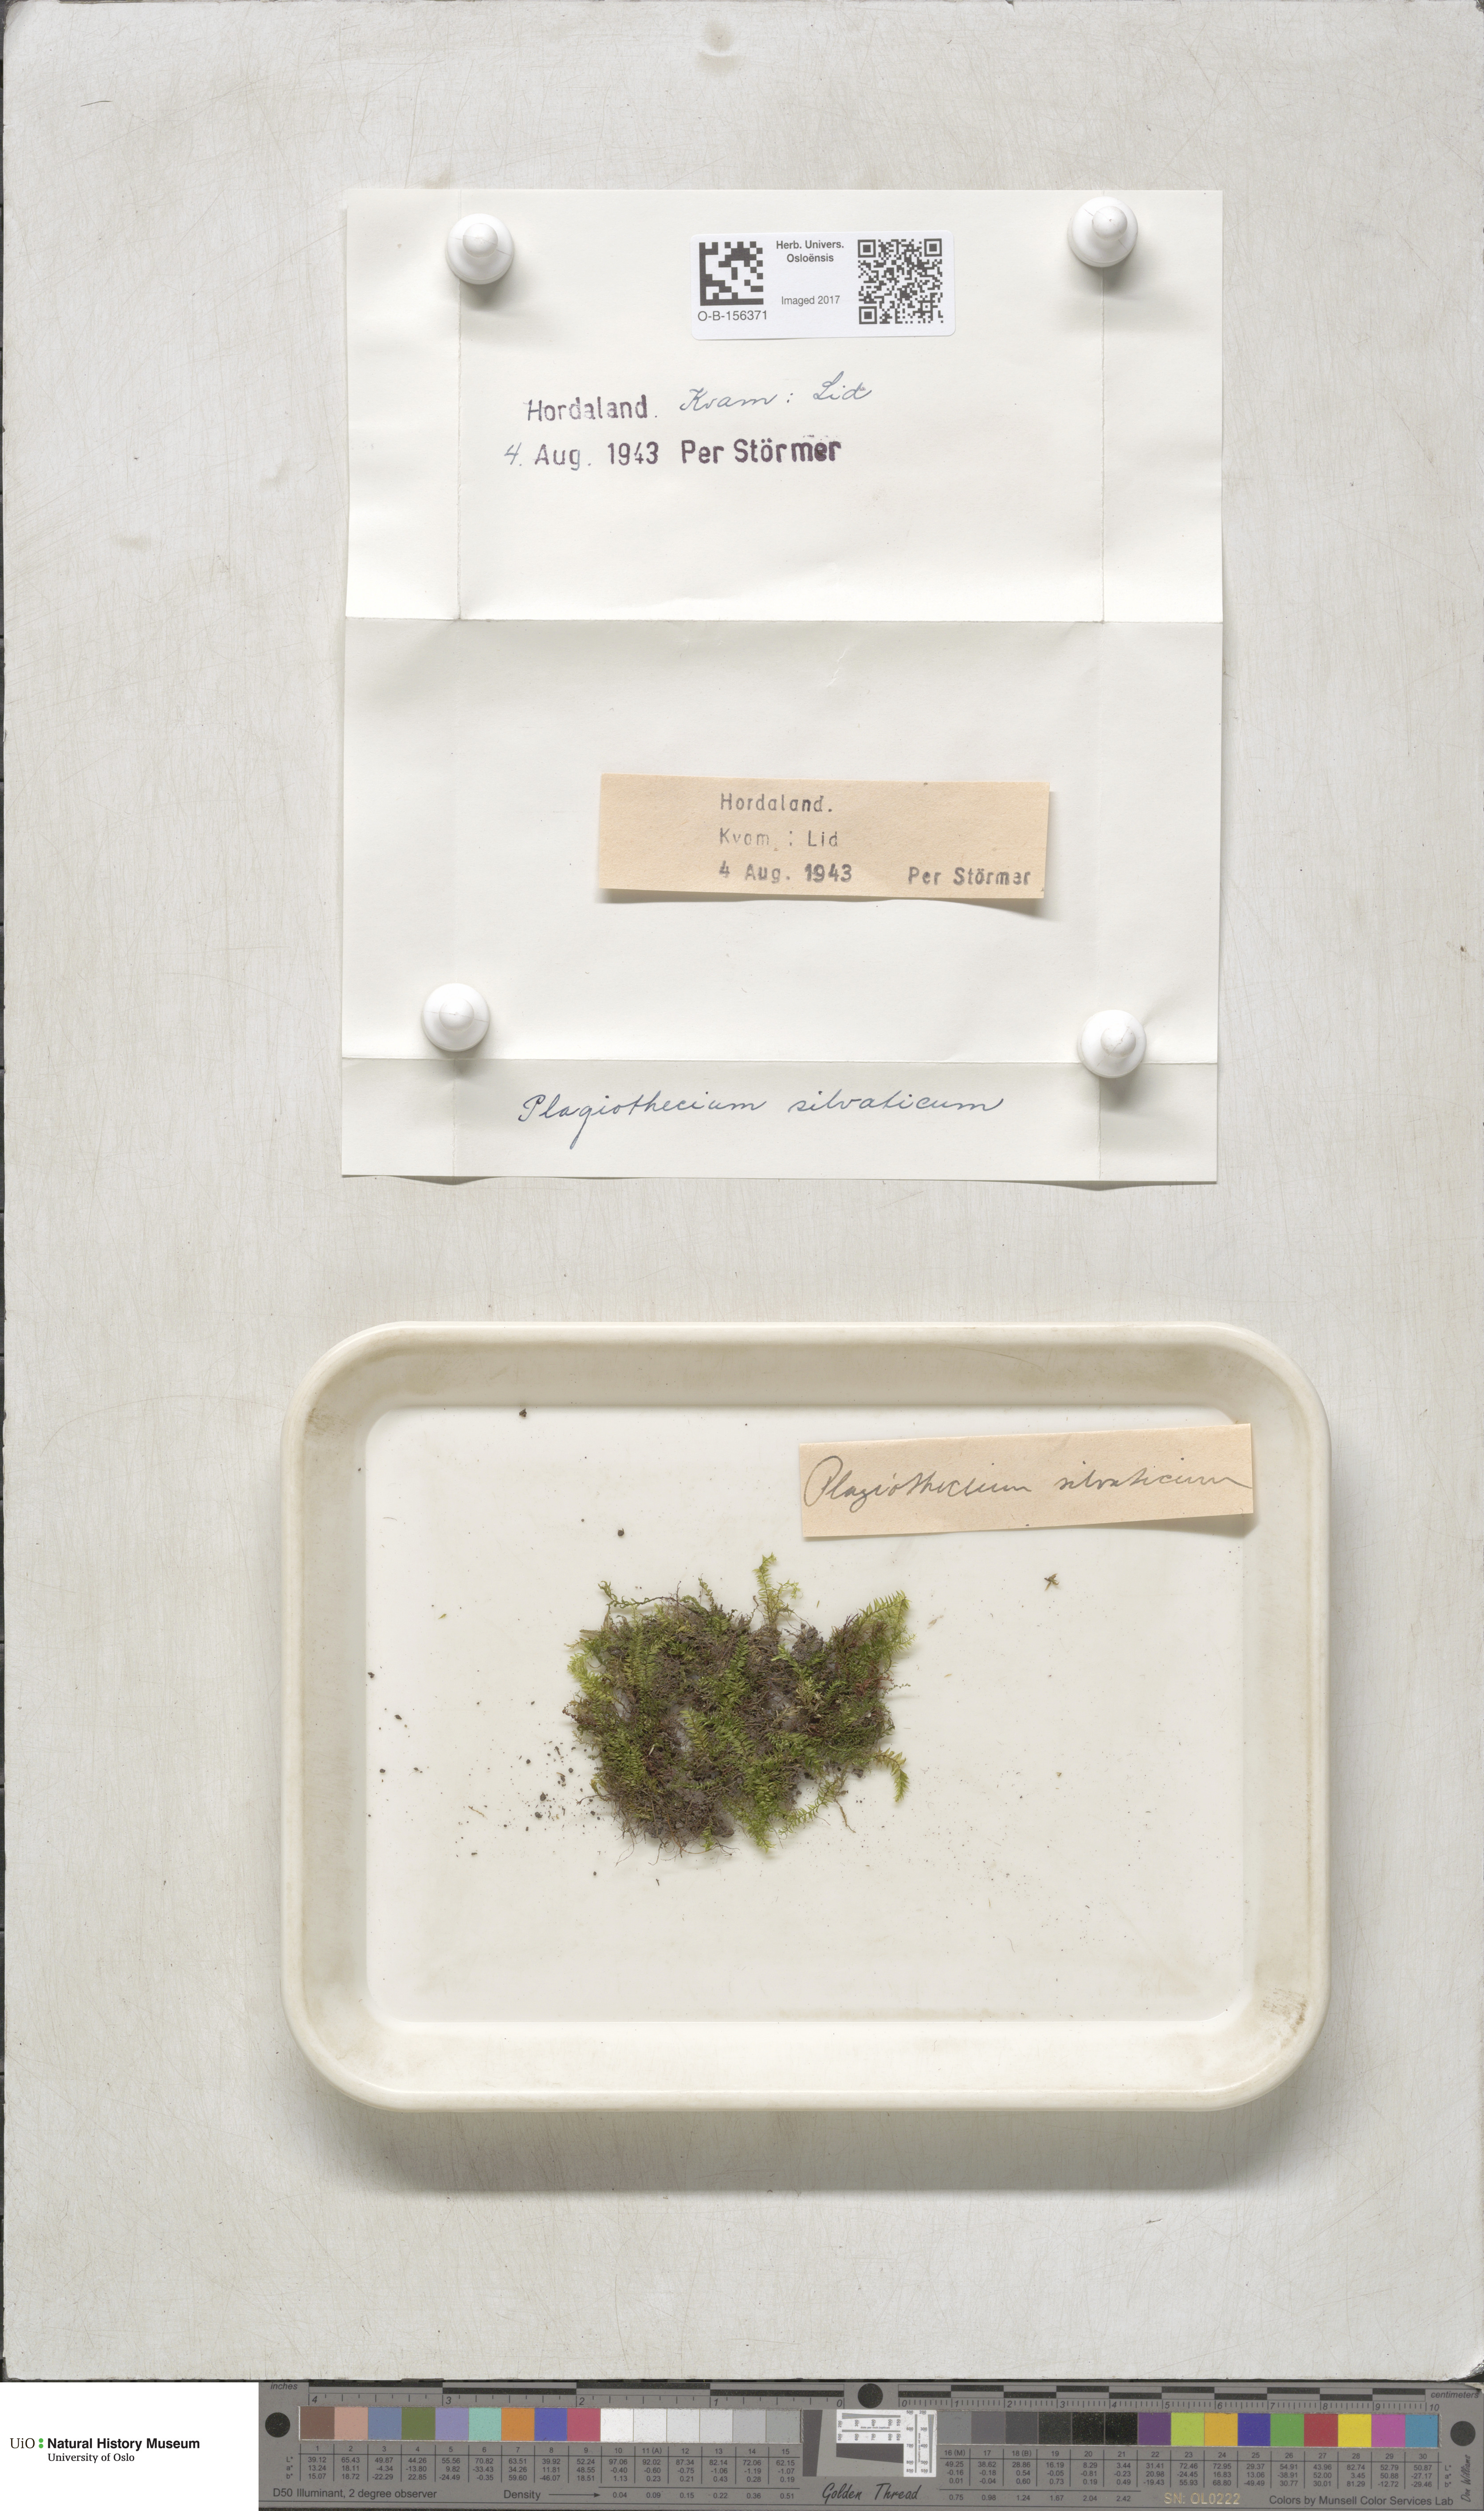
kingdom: Plantae
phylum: Bryophyta
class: Bryopsida
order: Hypnales
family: Plagiotheciaceae
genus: Plagiothecium
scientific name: Plagiothecium nemorale
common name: Woodsy silk-moss
